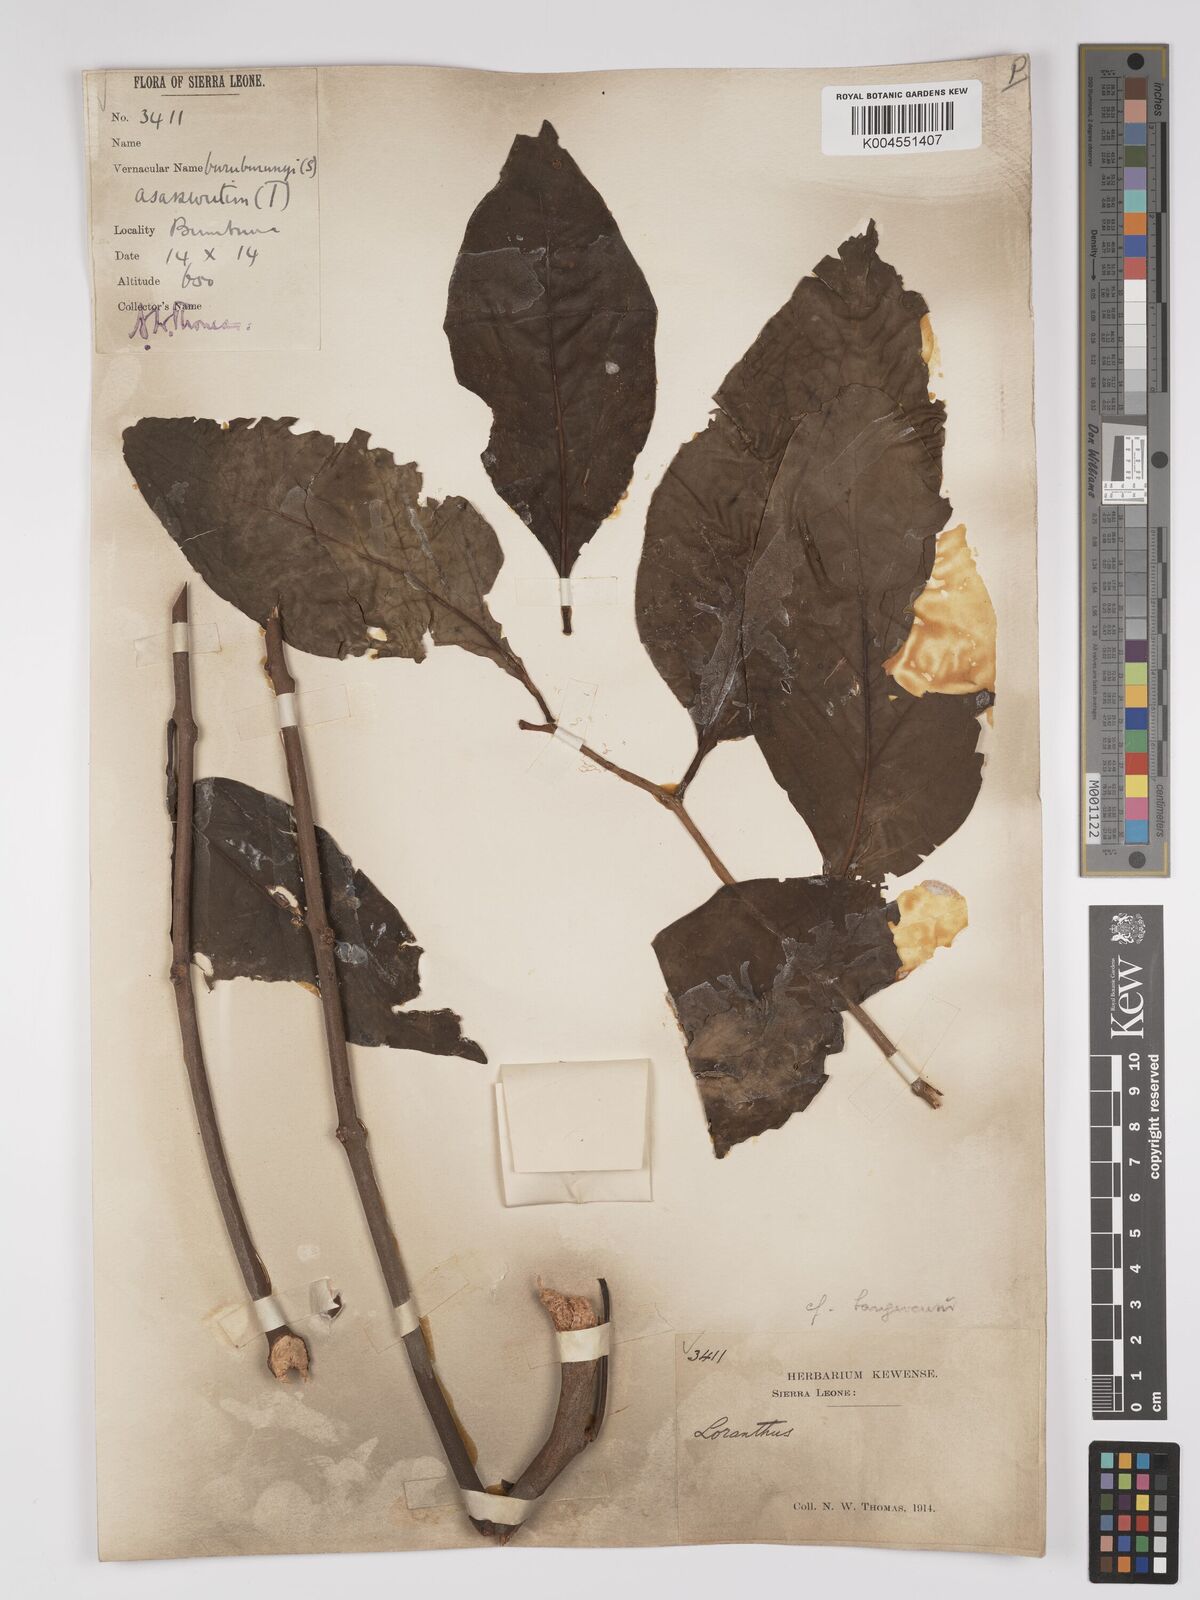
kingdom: Plantae
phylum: Tracheophyta
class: Magnoliopsida
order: Santalales
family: Loranthaceae
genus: Tapinanthus
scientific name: Tapinanthus bangwensis
